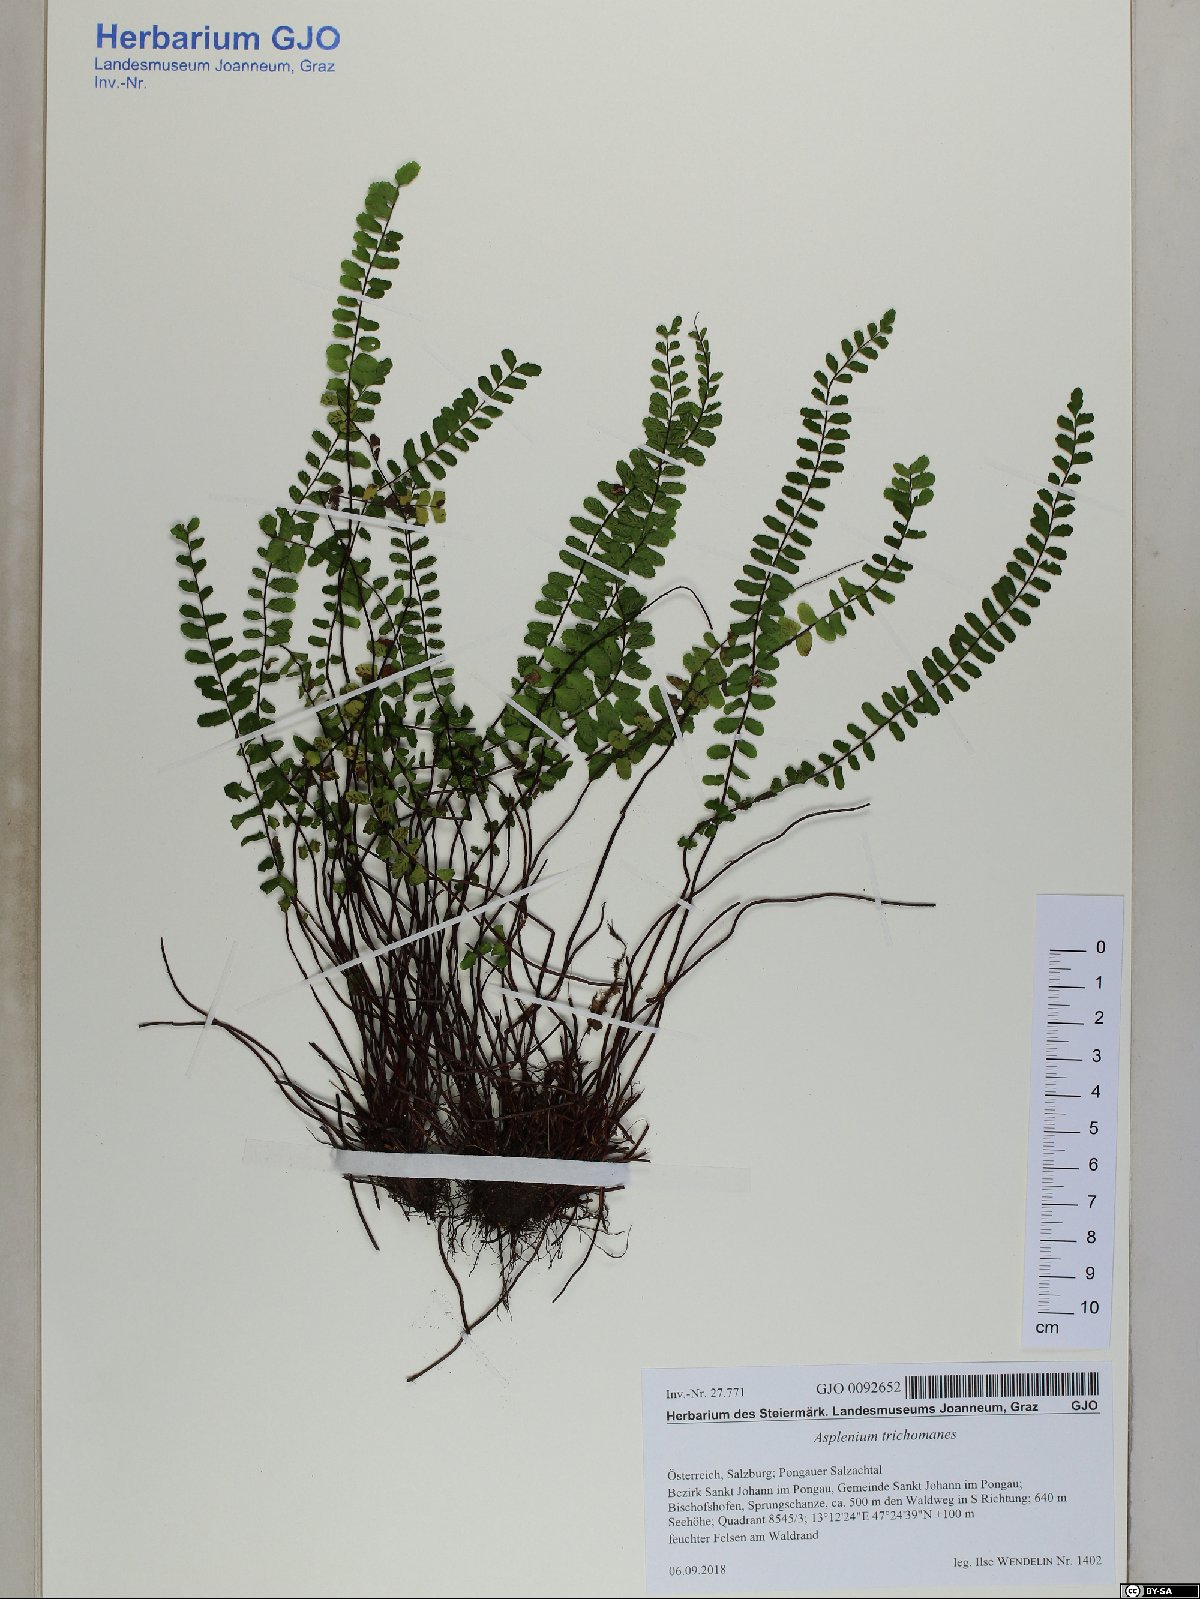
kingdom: Plantae
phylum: Tracheophyta
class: Polypodiopsida
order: Polypodiales
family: Aspleniaceae
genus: Asplenium
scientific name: Asplenium trichomanes
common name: Maidenhair spleenwort
